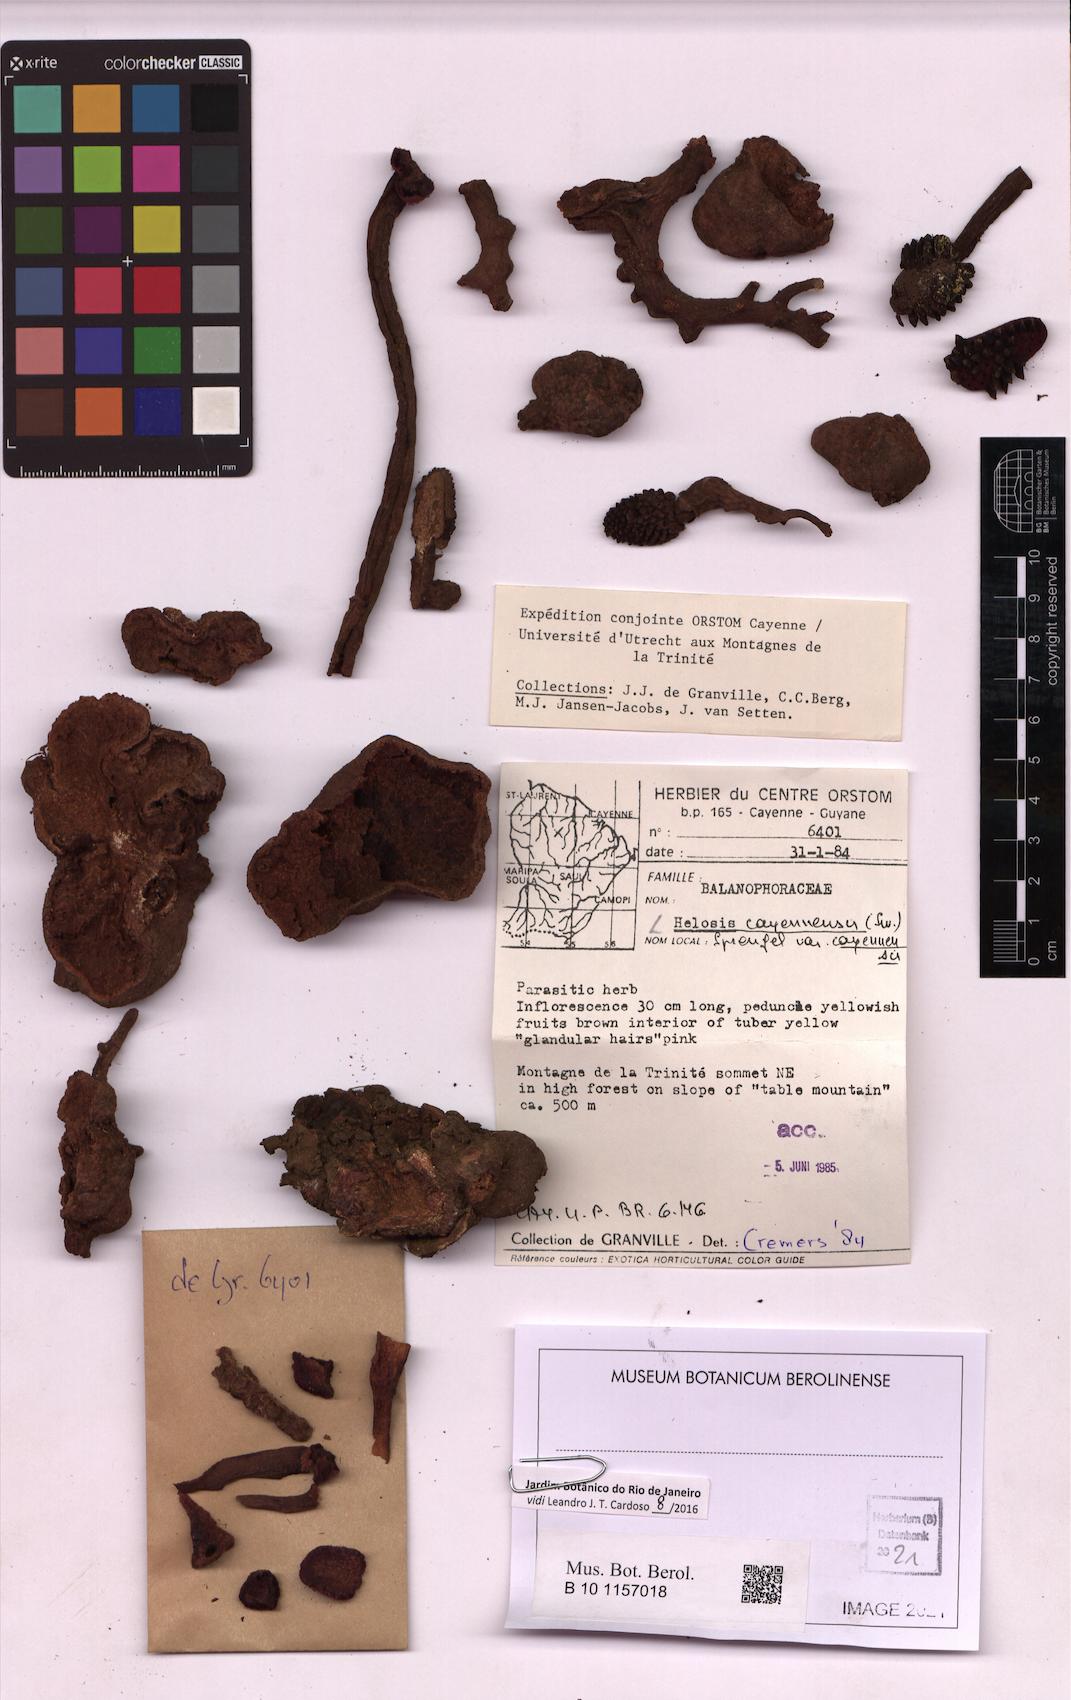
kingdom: Plantae
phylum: Tracheophyta
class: Magnoliopsida
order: Santalales
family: Balanophoraceae
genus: Helosis
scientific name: Helosis cayennensis
